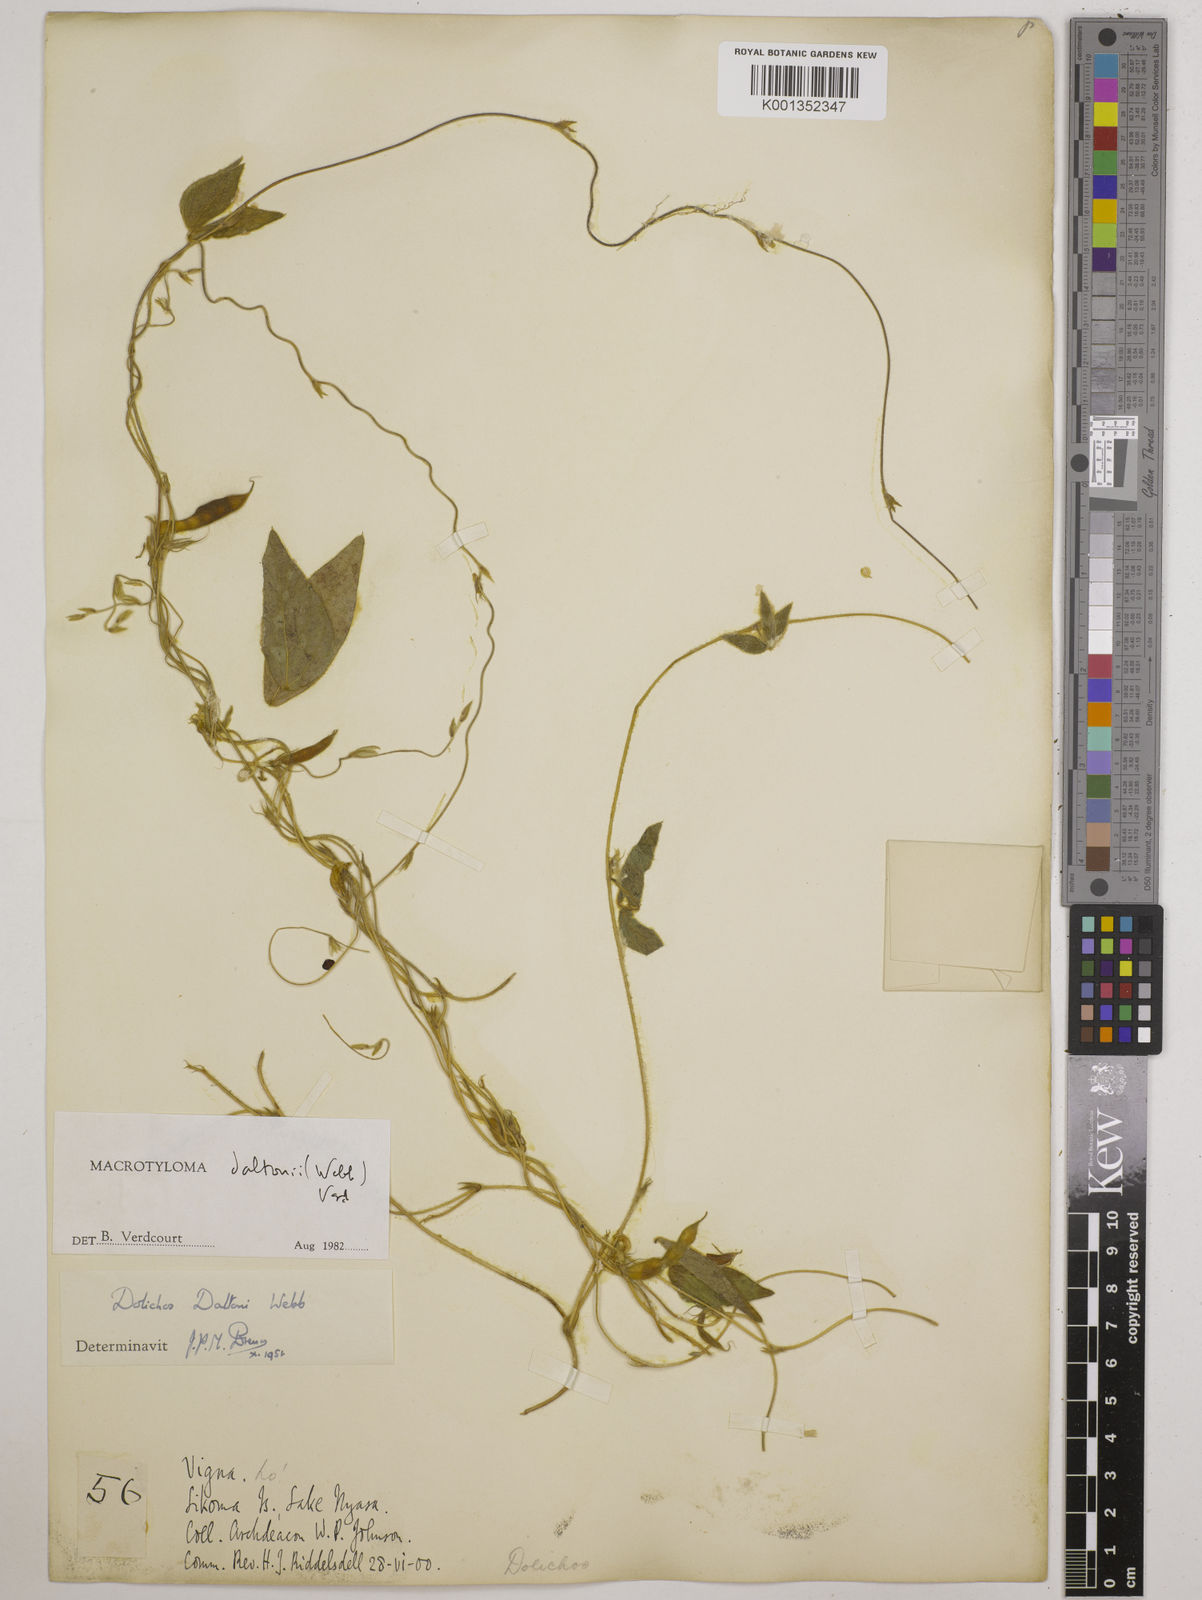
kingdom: Plantae
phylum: Tracheophyta
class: Magnoliopsida
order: Fabales
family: Fabaceae
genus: Macrotyloma
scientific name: Macrotyloma daltonii
